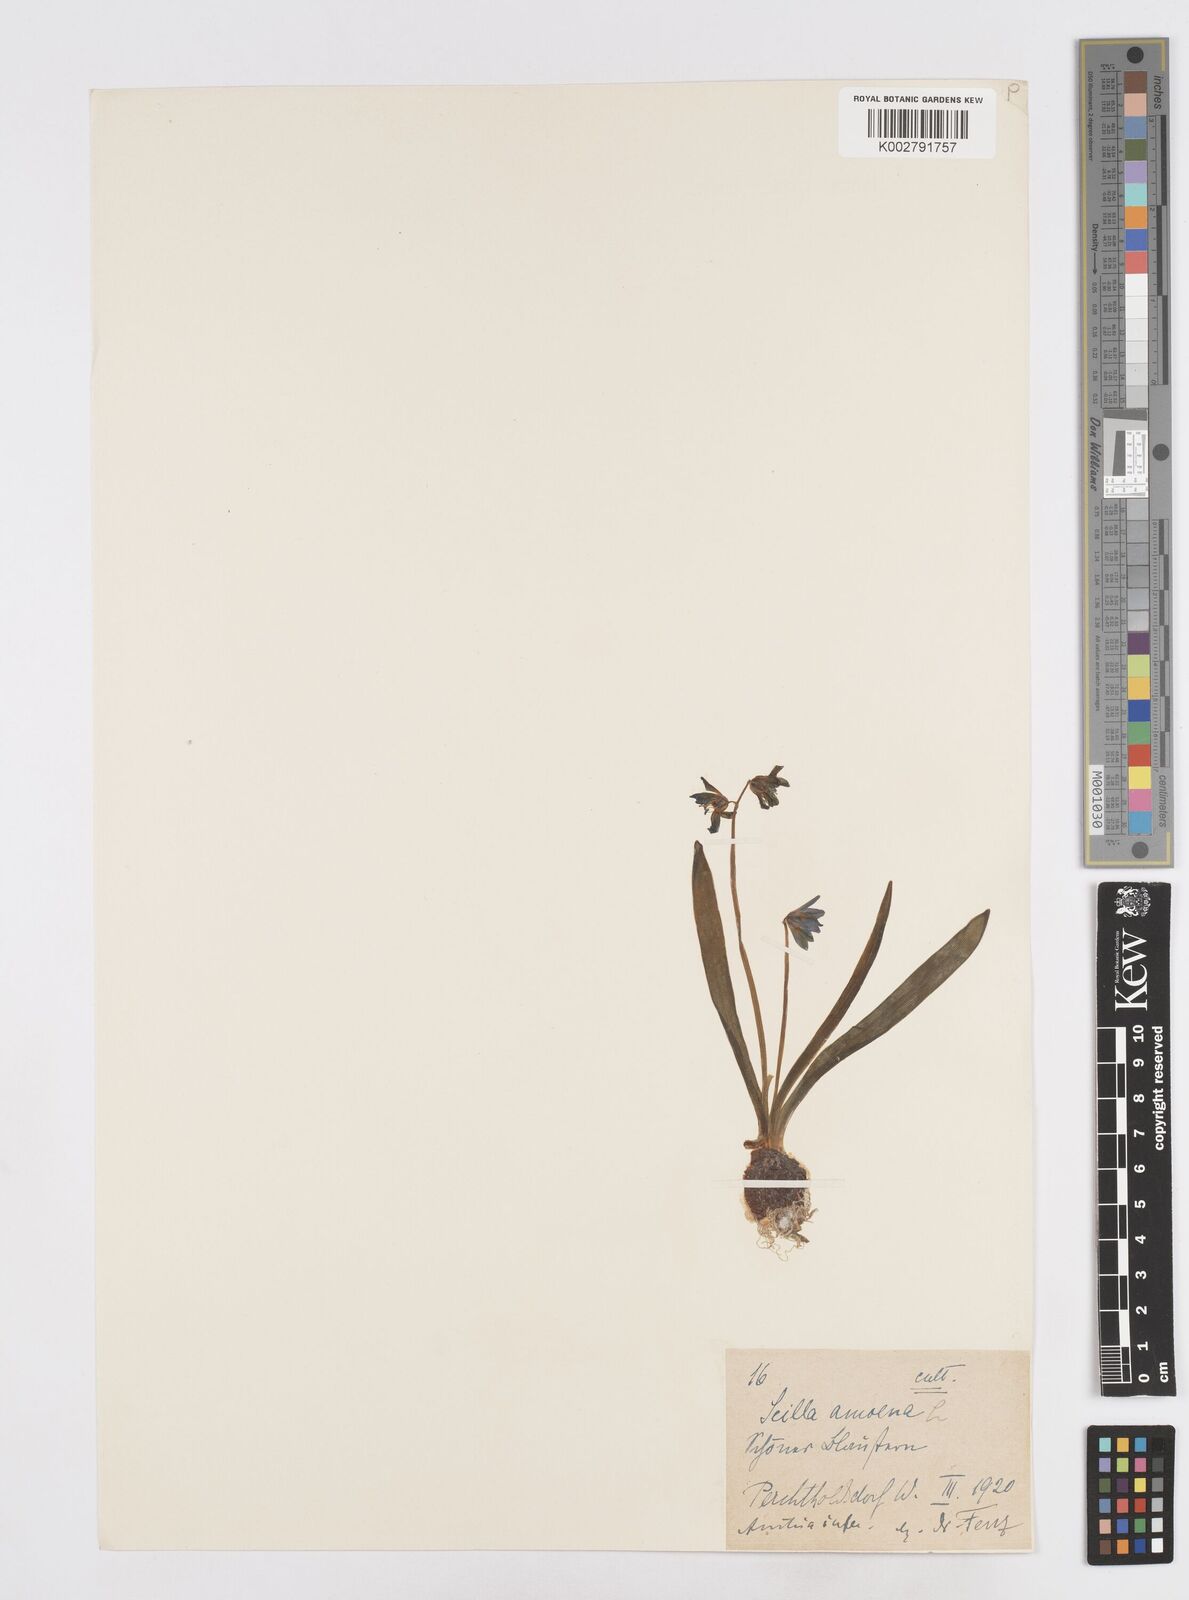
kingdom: Plantae
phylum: Tracheophyta
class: Liliopsida
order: Asparagales
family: Asparagaceae
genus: Scilla
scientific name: Scilla siberica
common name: Siberian squill
